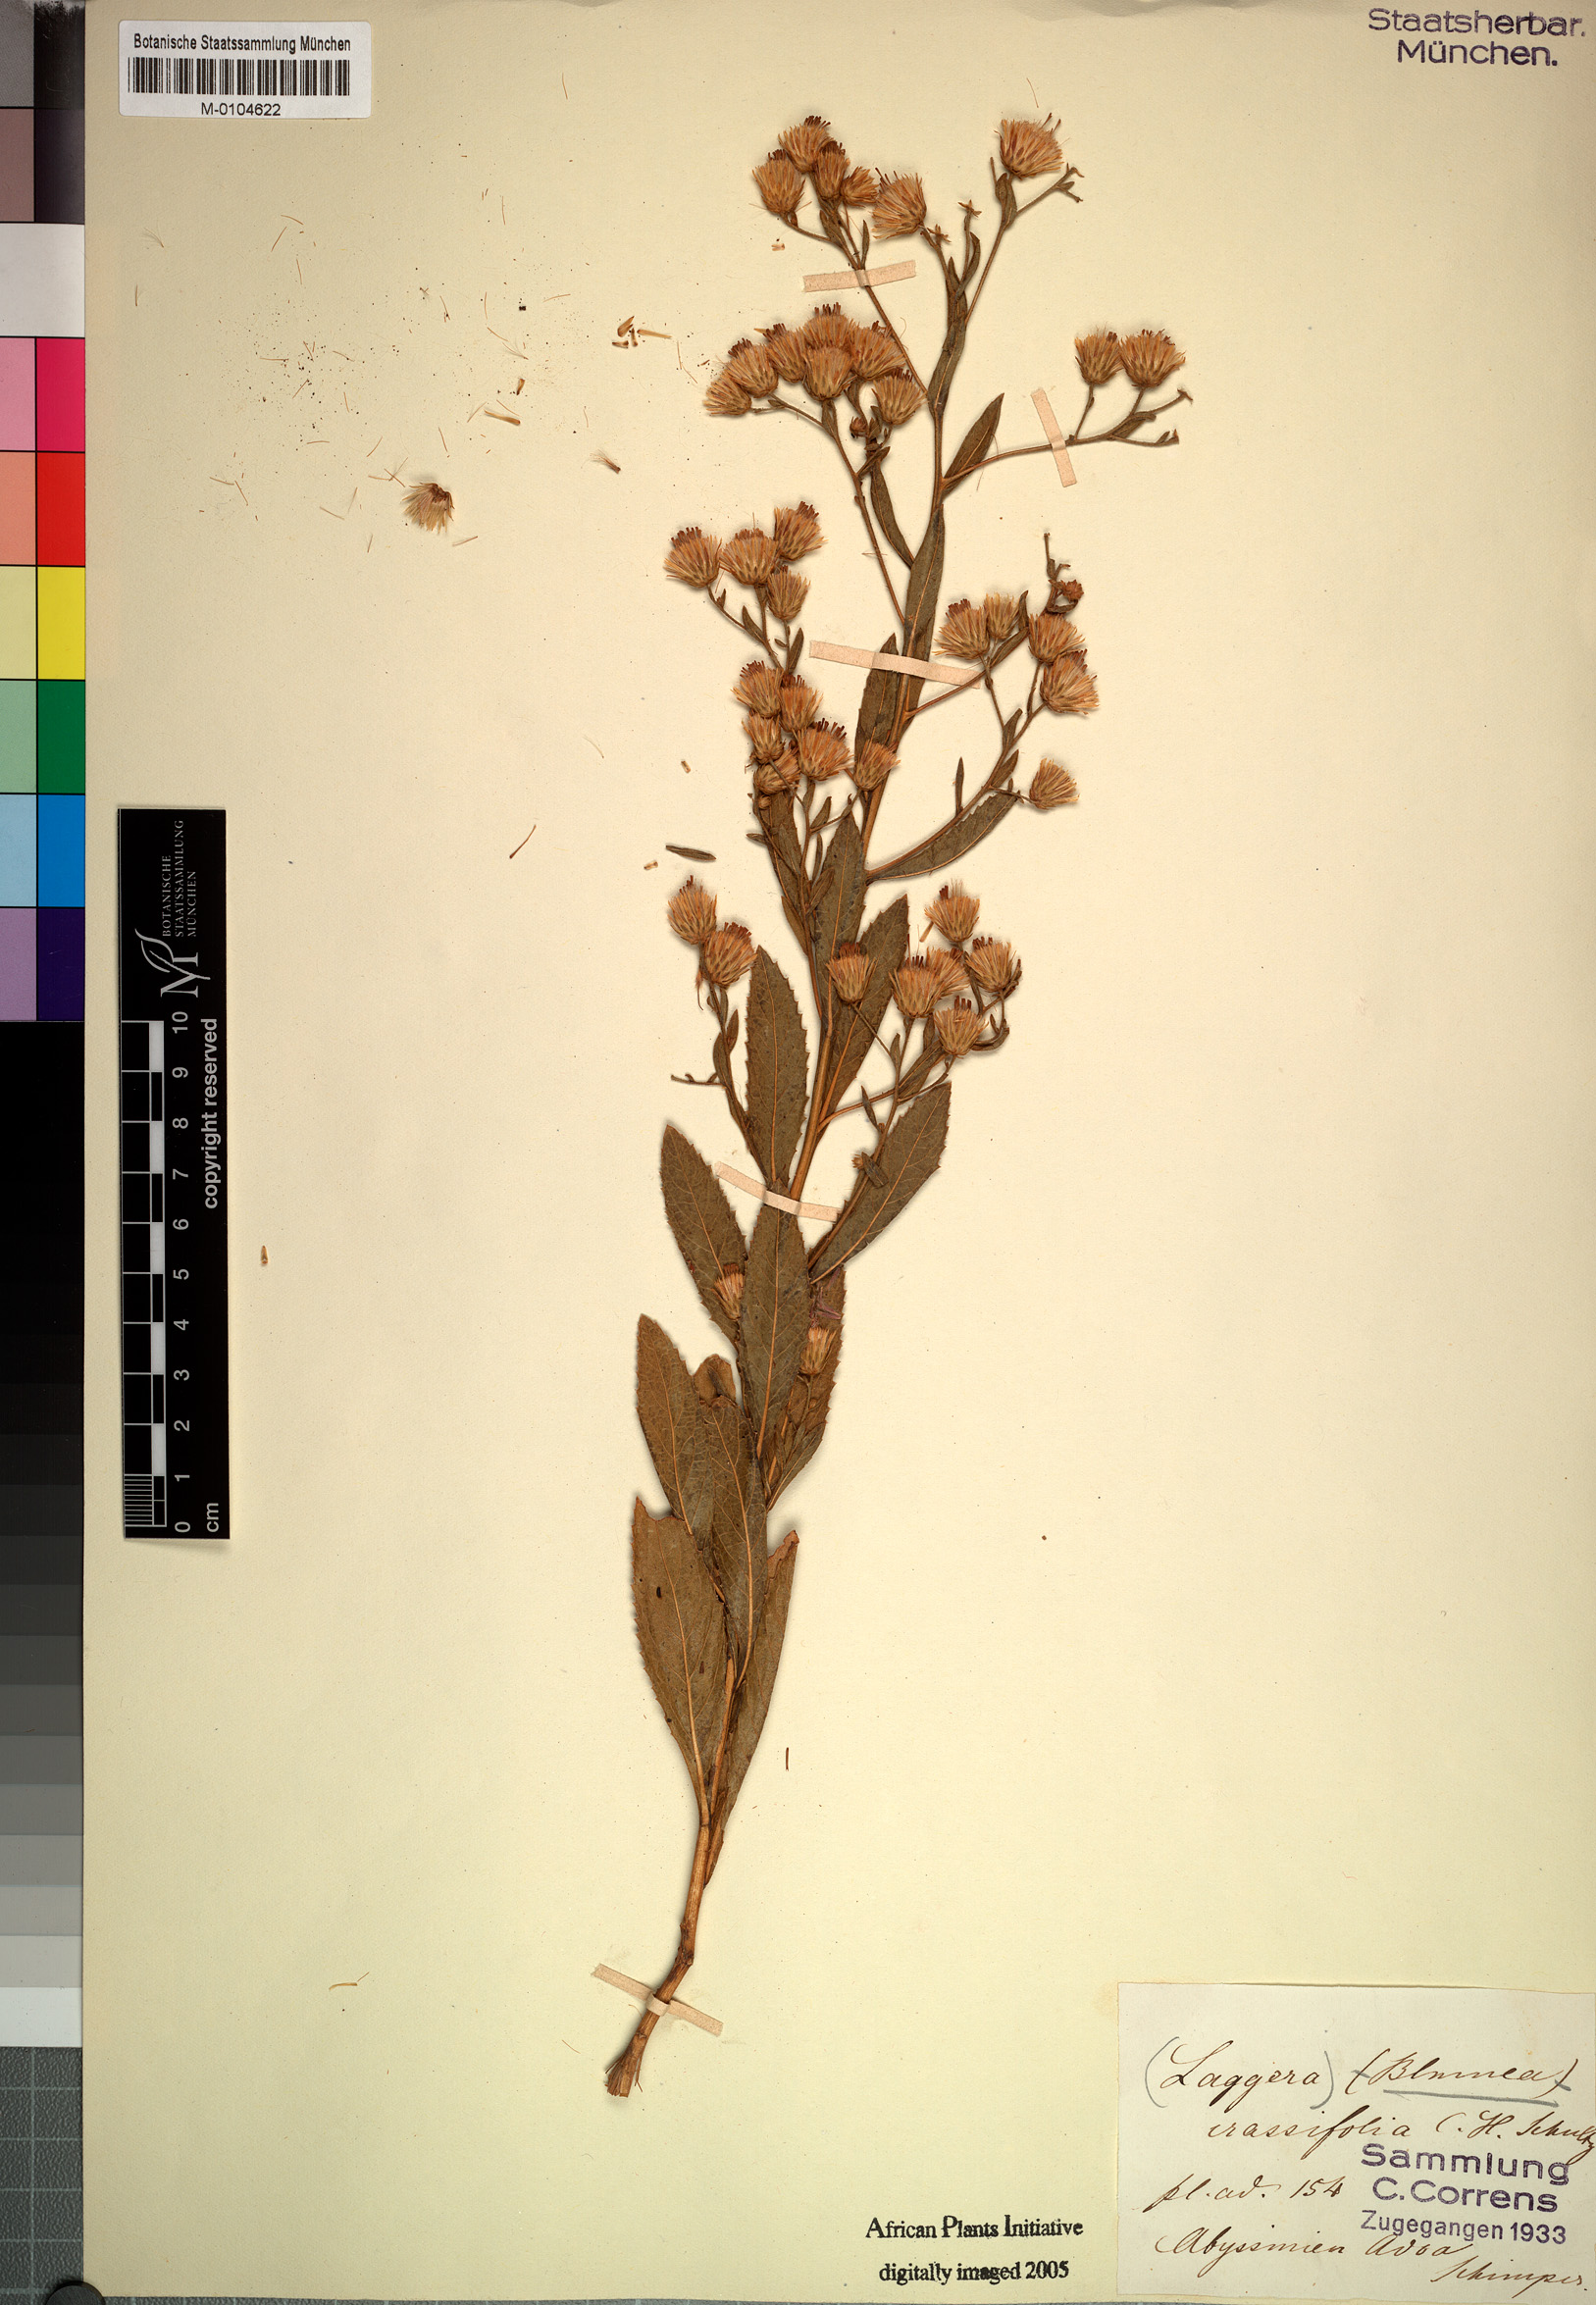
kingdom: Plantae
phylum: Tracheophyta
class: Magnoliopsida
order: Asterales
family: Asteraceae
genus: Laggera
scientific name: Laggera crassifolia
